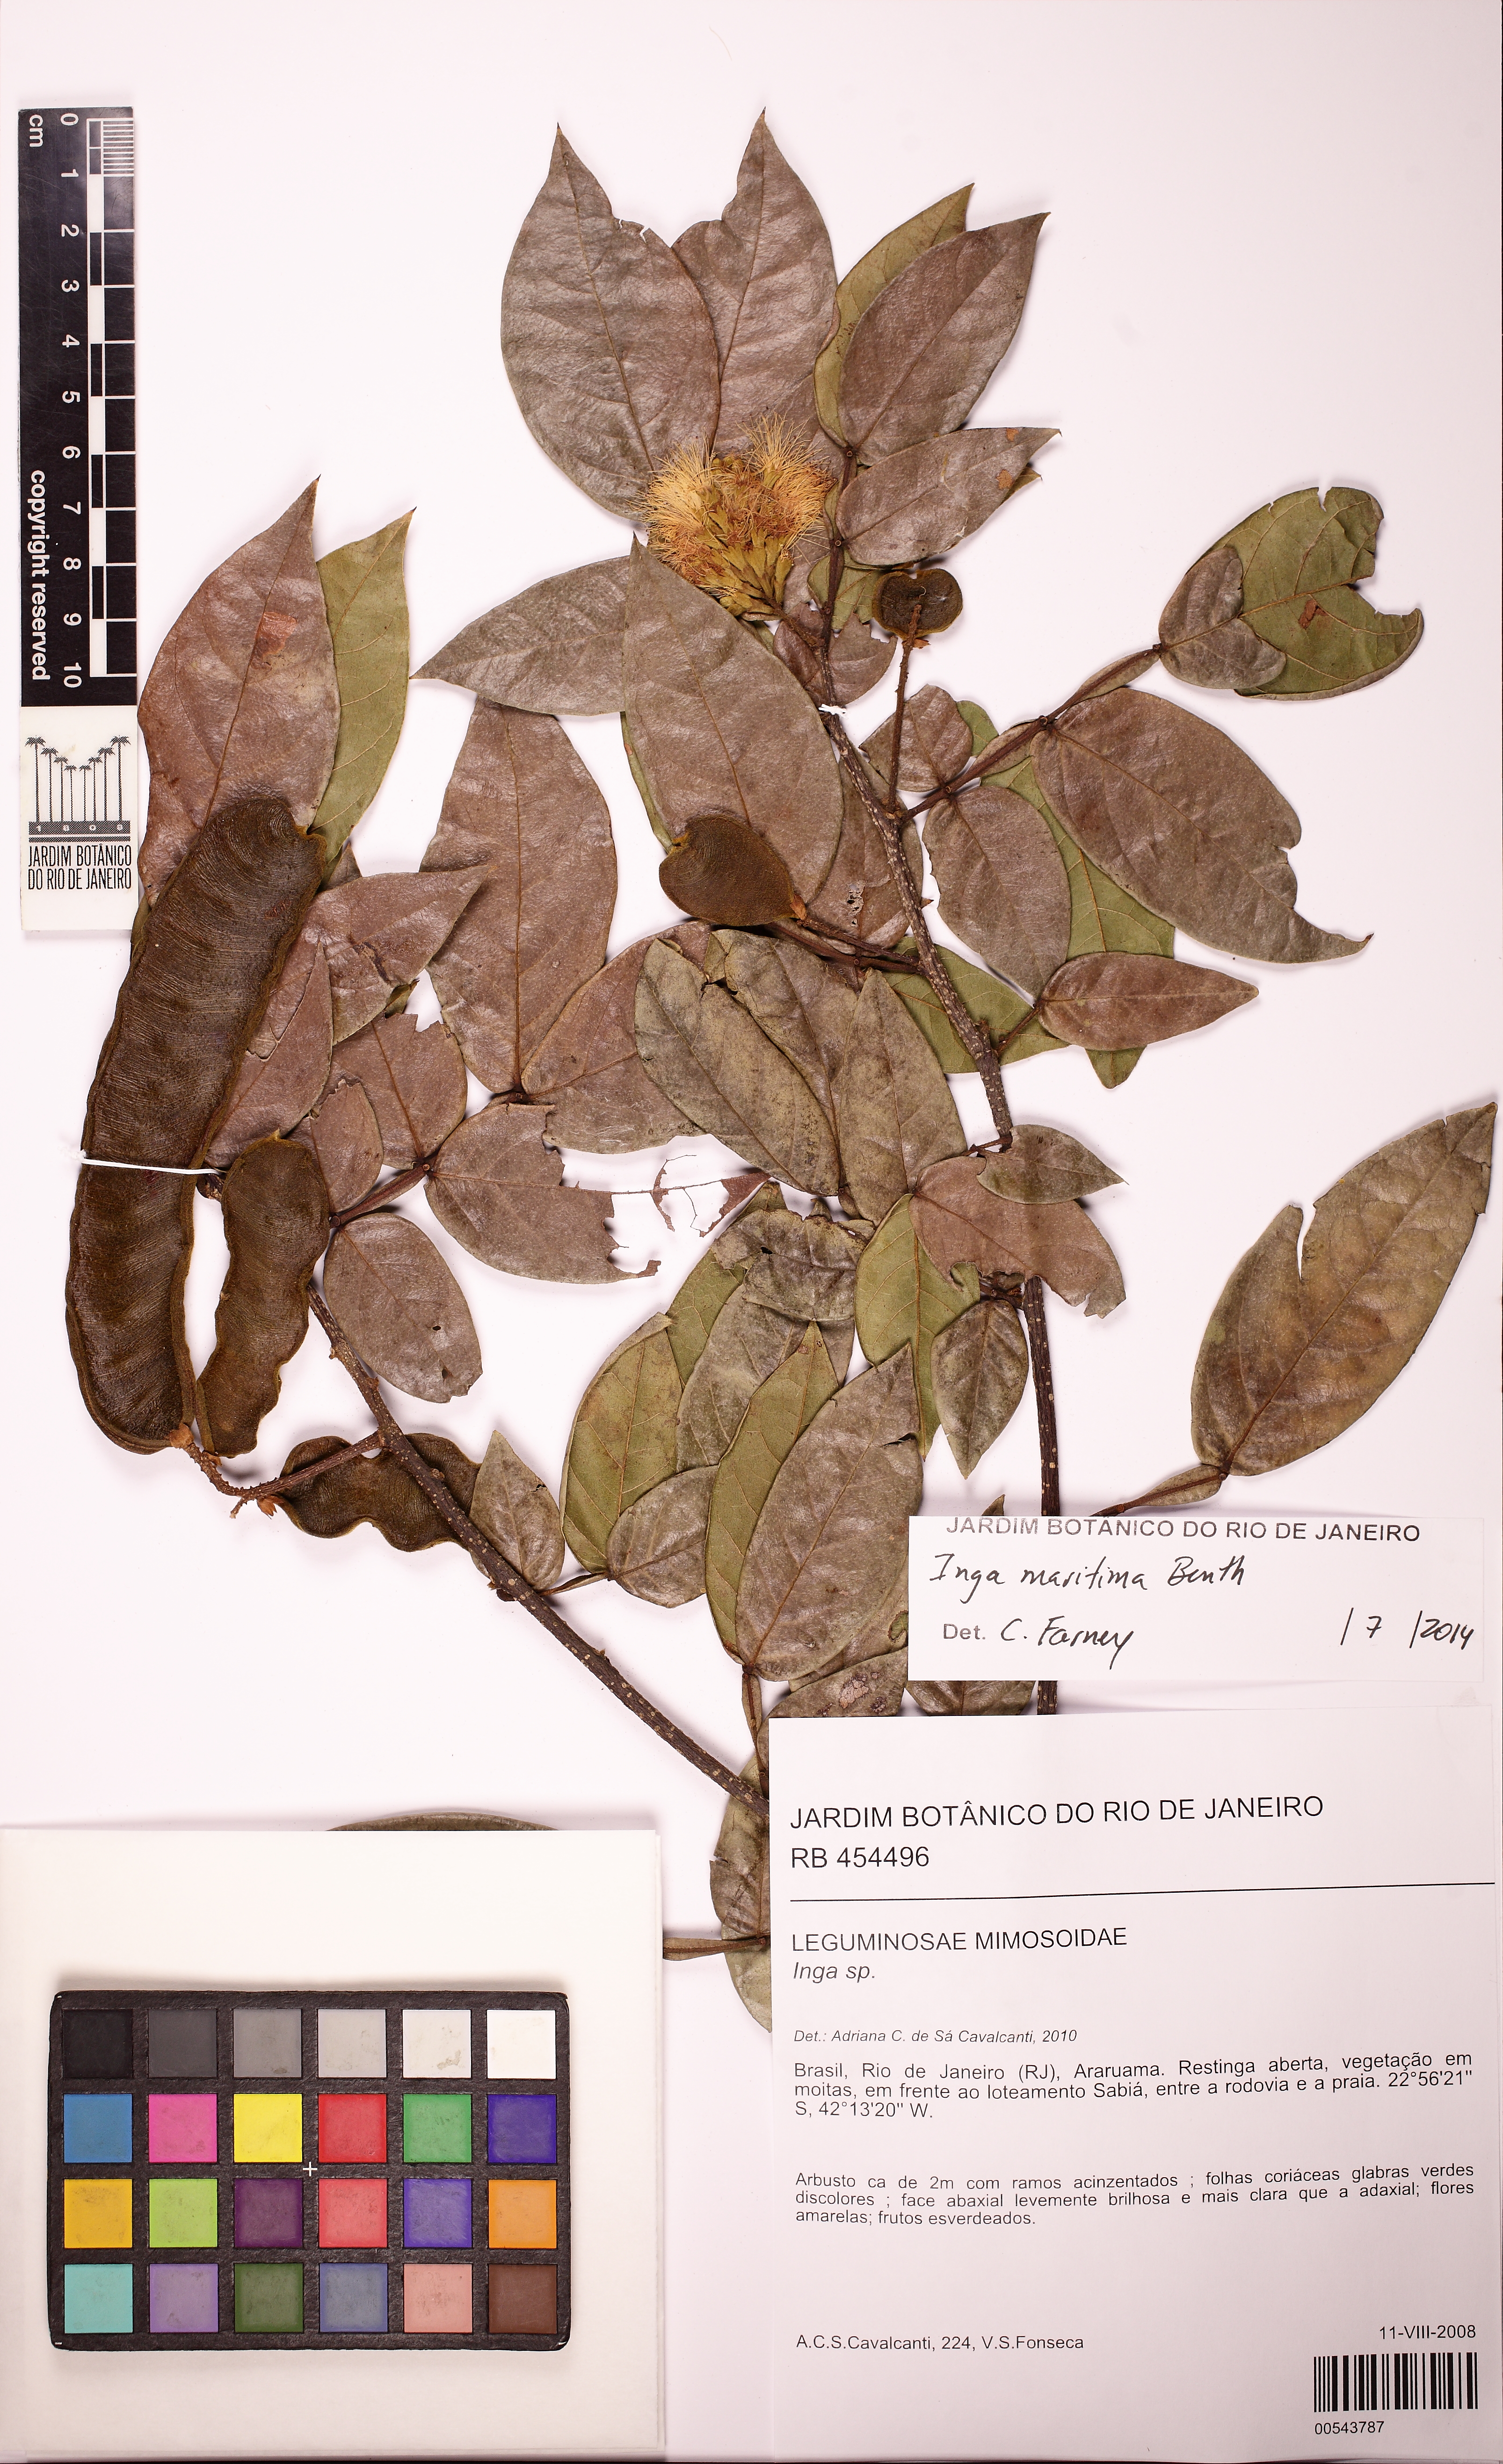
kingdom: Plantae
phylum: Tracheophyta
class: Magnoliopsida
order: Fabales
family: Fabaceae
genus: Inga
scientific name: Inga maritima
